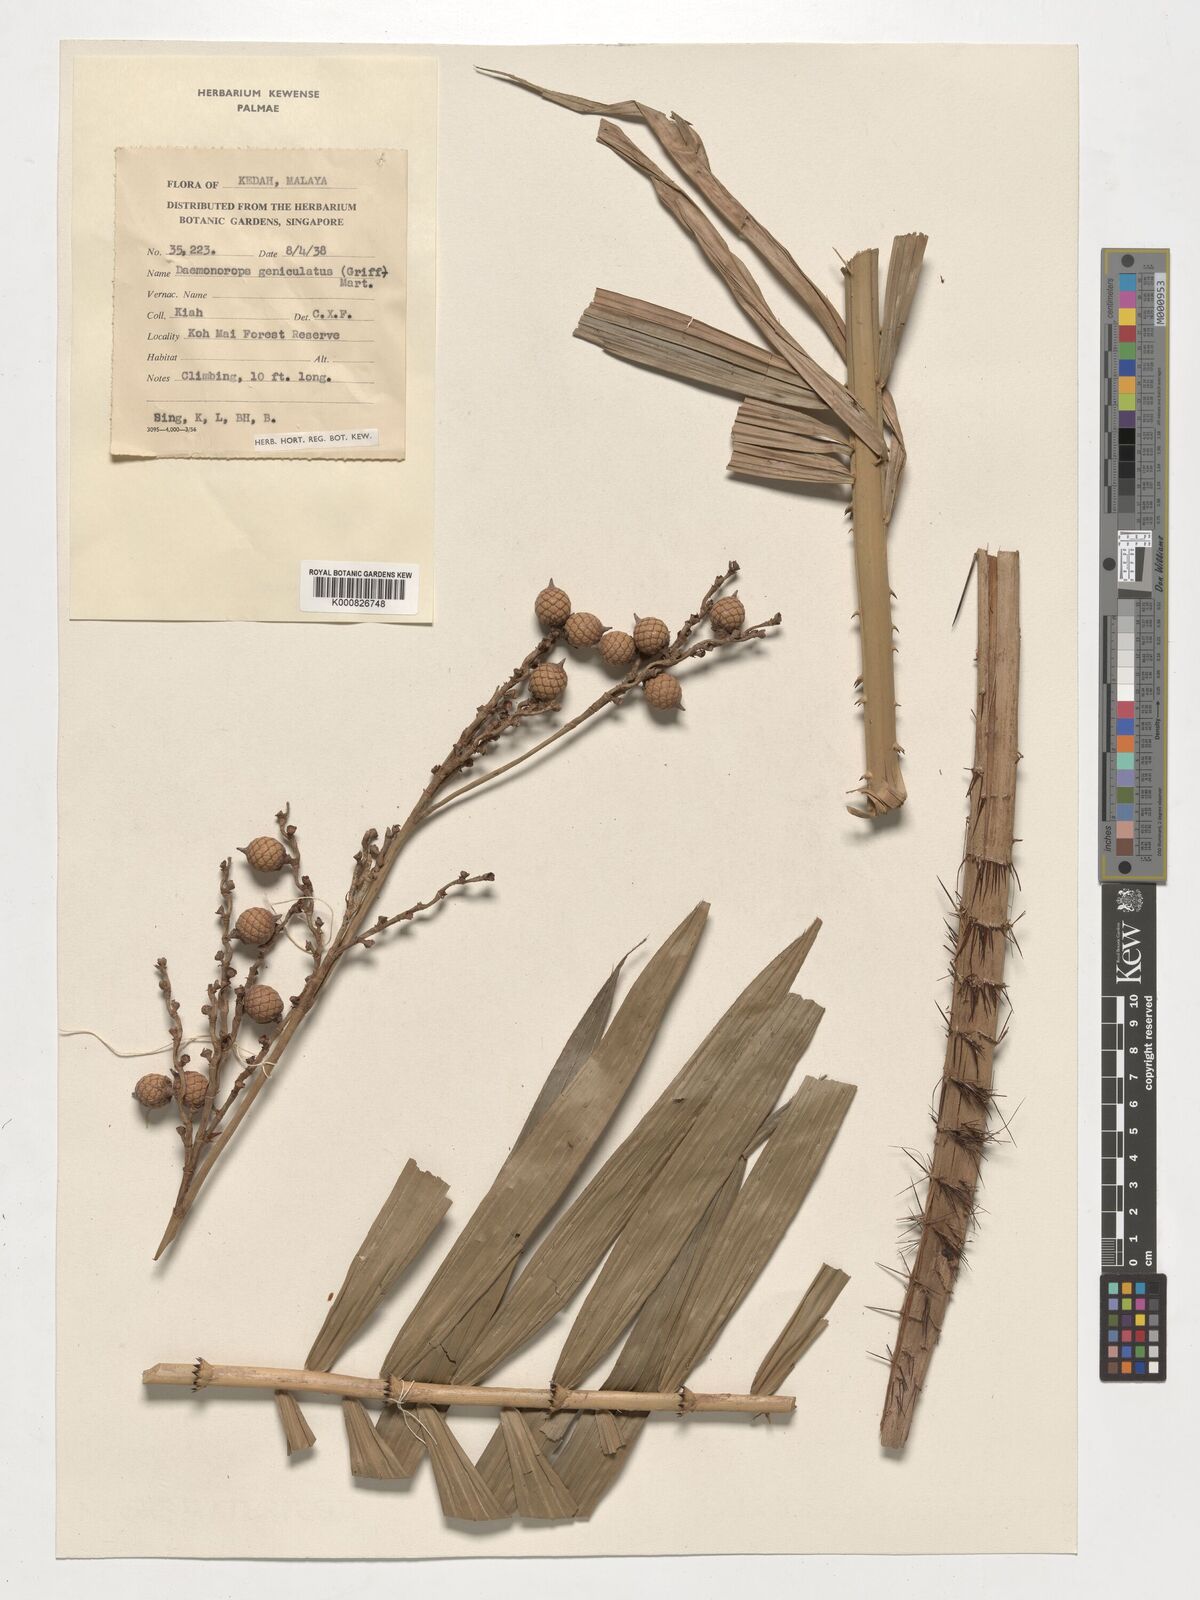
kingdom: Plantae
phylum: Tracheophyta
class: Liliopsida
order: Arecales
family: Arecaceae
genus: Calamus
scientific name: Calamus geniculatus
